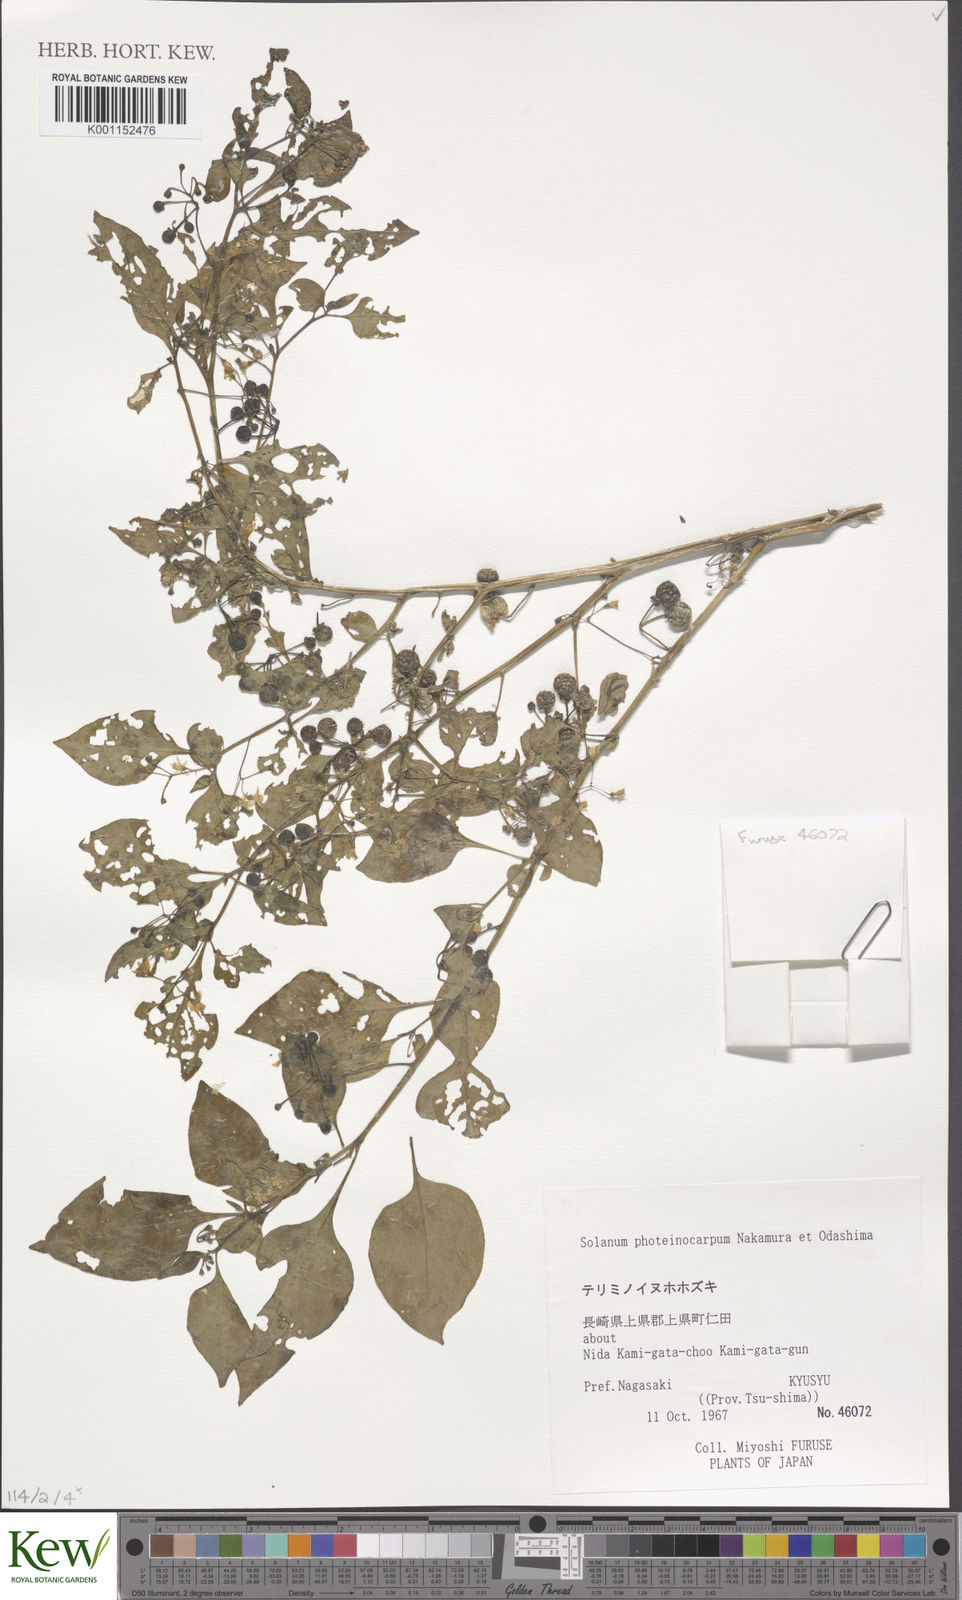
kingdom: Plantae
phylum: Tracheophyta
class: Magnoliopsida
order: Solanales
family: Solanaceae
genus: Solanum
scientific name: Solanum americanum
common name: American black nightshade
